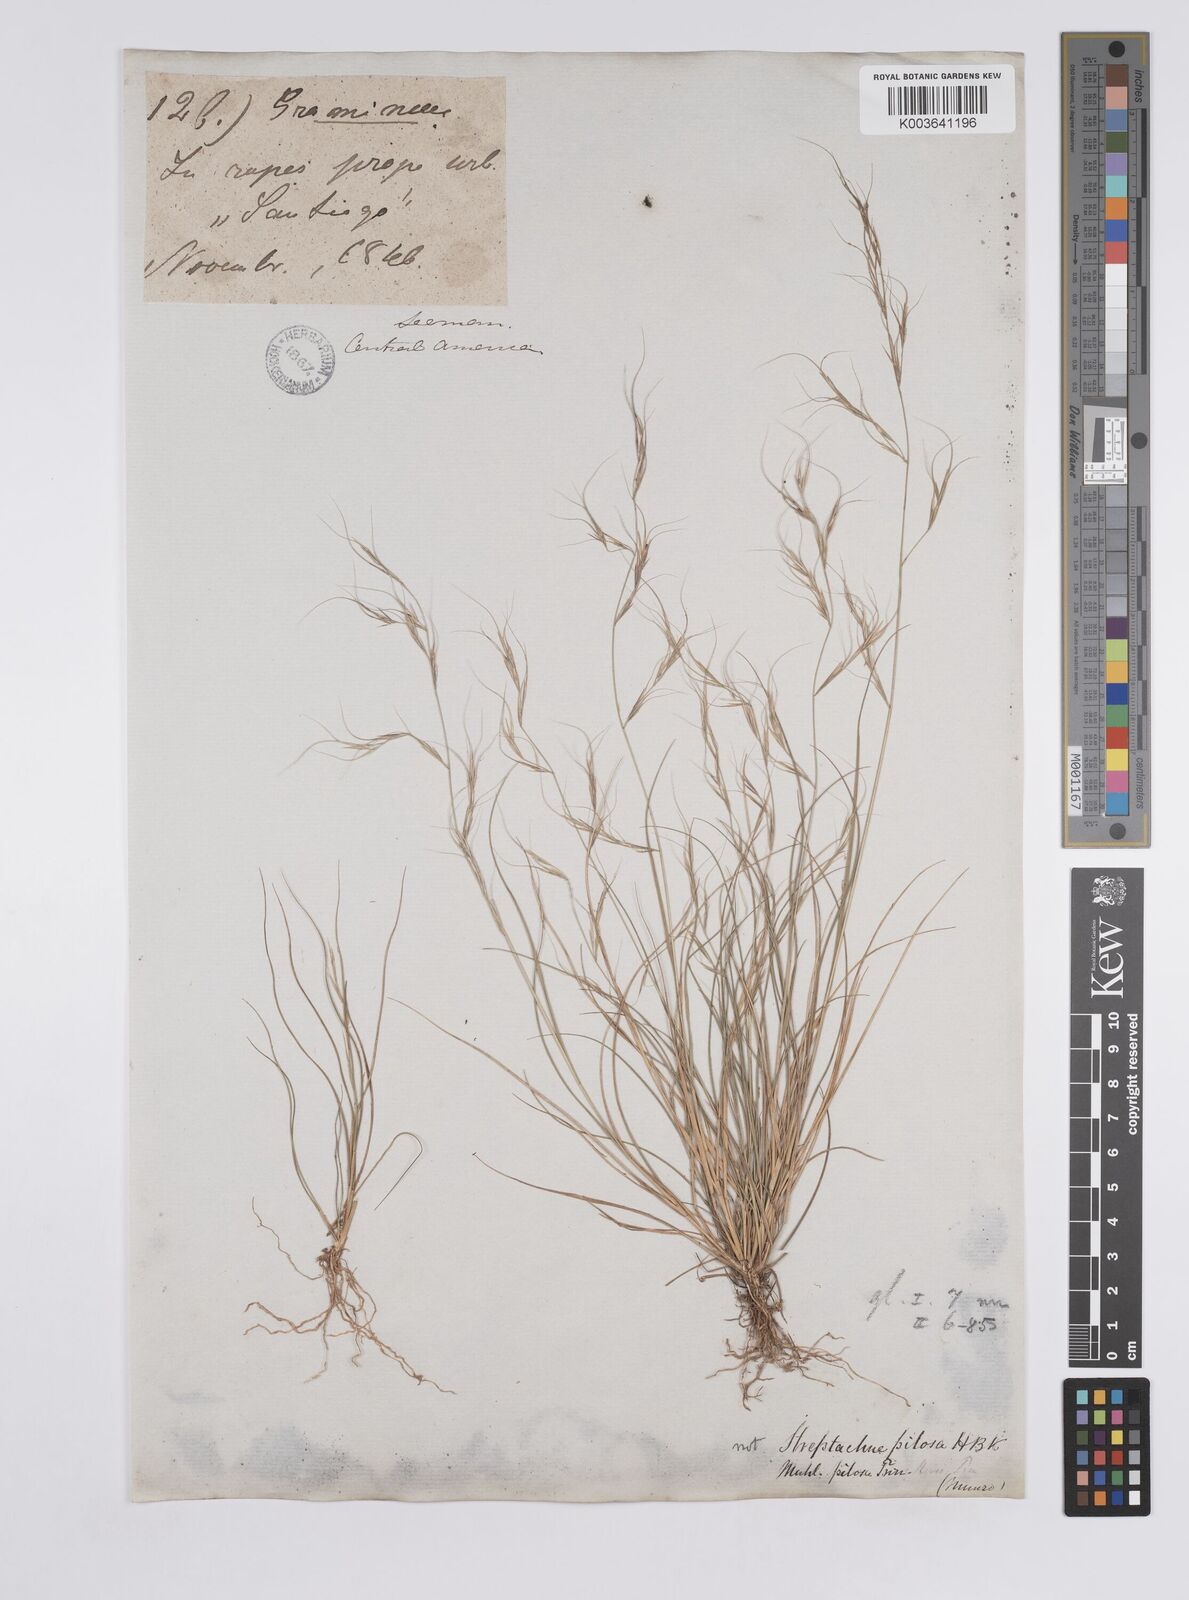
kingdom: Plantae
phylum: Tracheophyta
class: Liliopsida
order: Poales
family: Poaceae
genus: Aristida
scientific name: Aristida jorullensis
